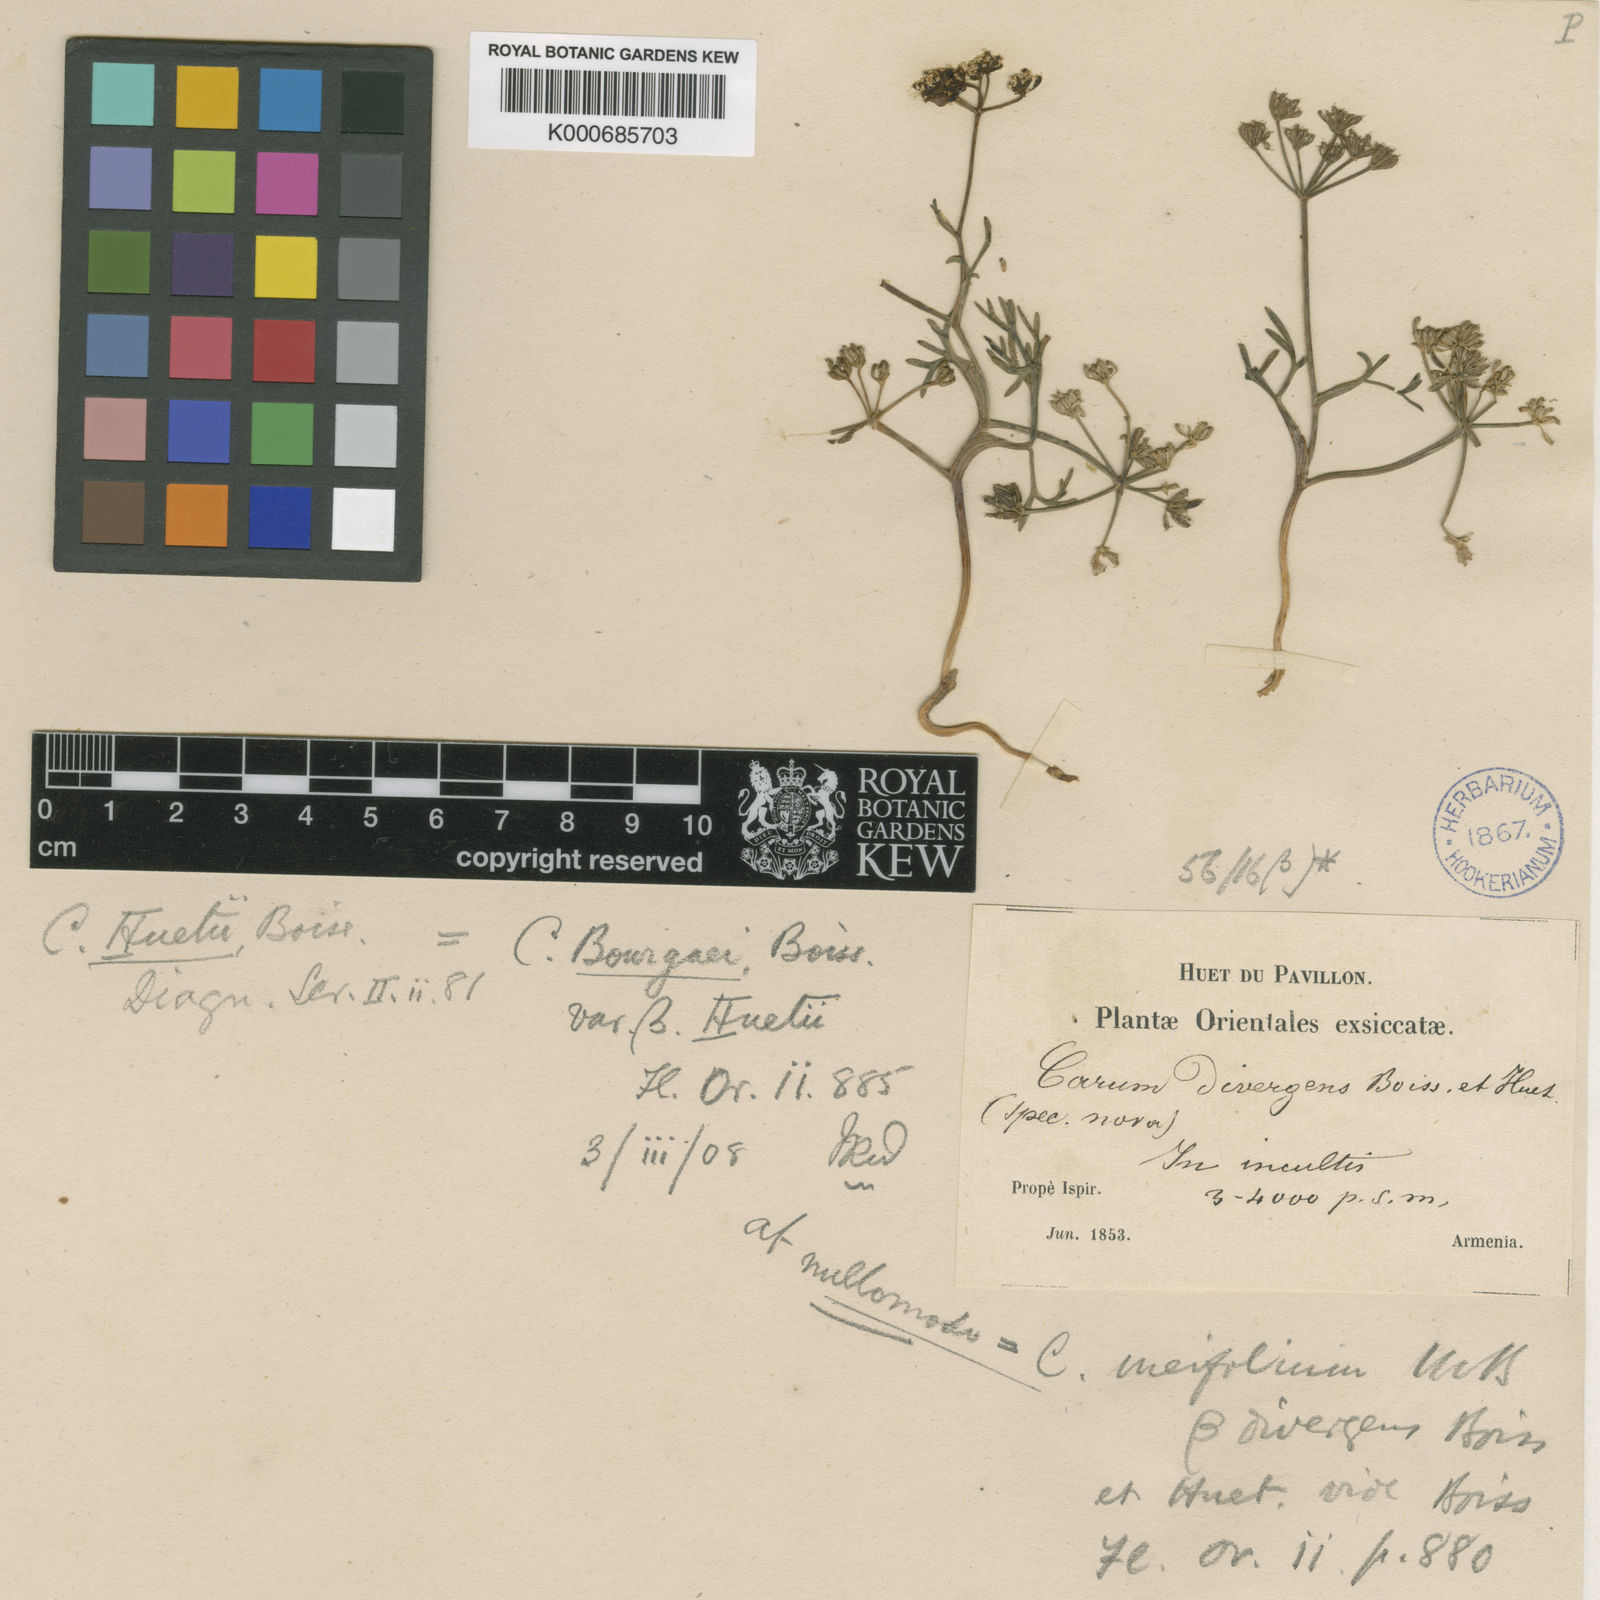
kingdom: Plantae
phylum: Tracheophyta
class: Magnoliopsida
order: Apiales
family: Apiaceae
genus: Bunium
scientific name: Bunium bourgaei
